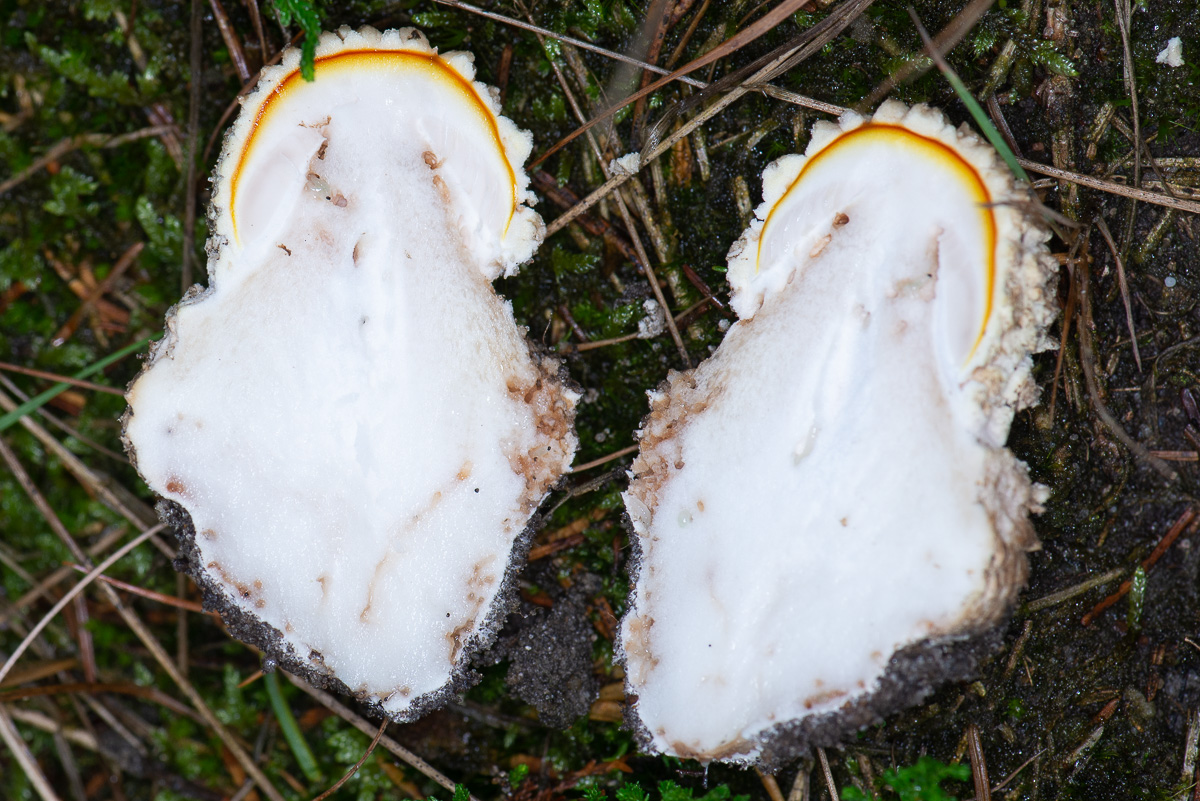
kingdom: Fungi
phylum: Basidiomycota
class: Agaricomycetes
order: Agaricales
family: Amanitaceae
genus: Amanita
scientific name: Amanita muscaria
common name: rød fluesvamp
